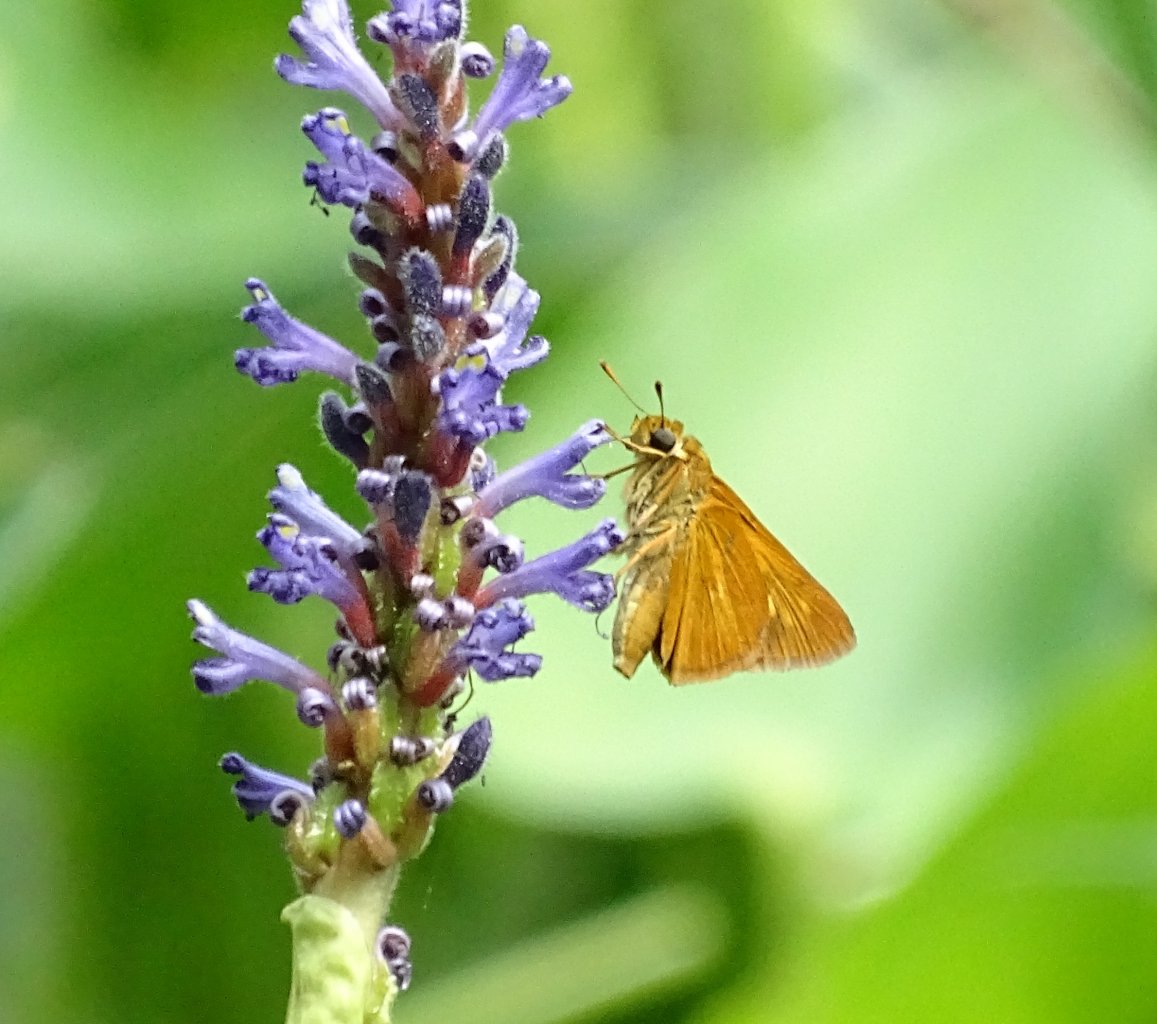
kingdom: Animalia
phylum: Arthropoda
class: Insecta
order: Lepidoptera
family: Hesperiidae
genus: Euphyes
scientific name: Euphyes dion
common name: Dion Skipper
